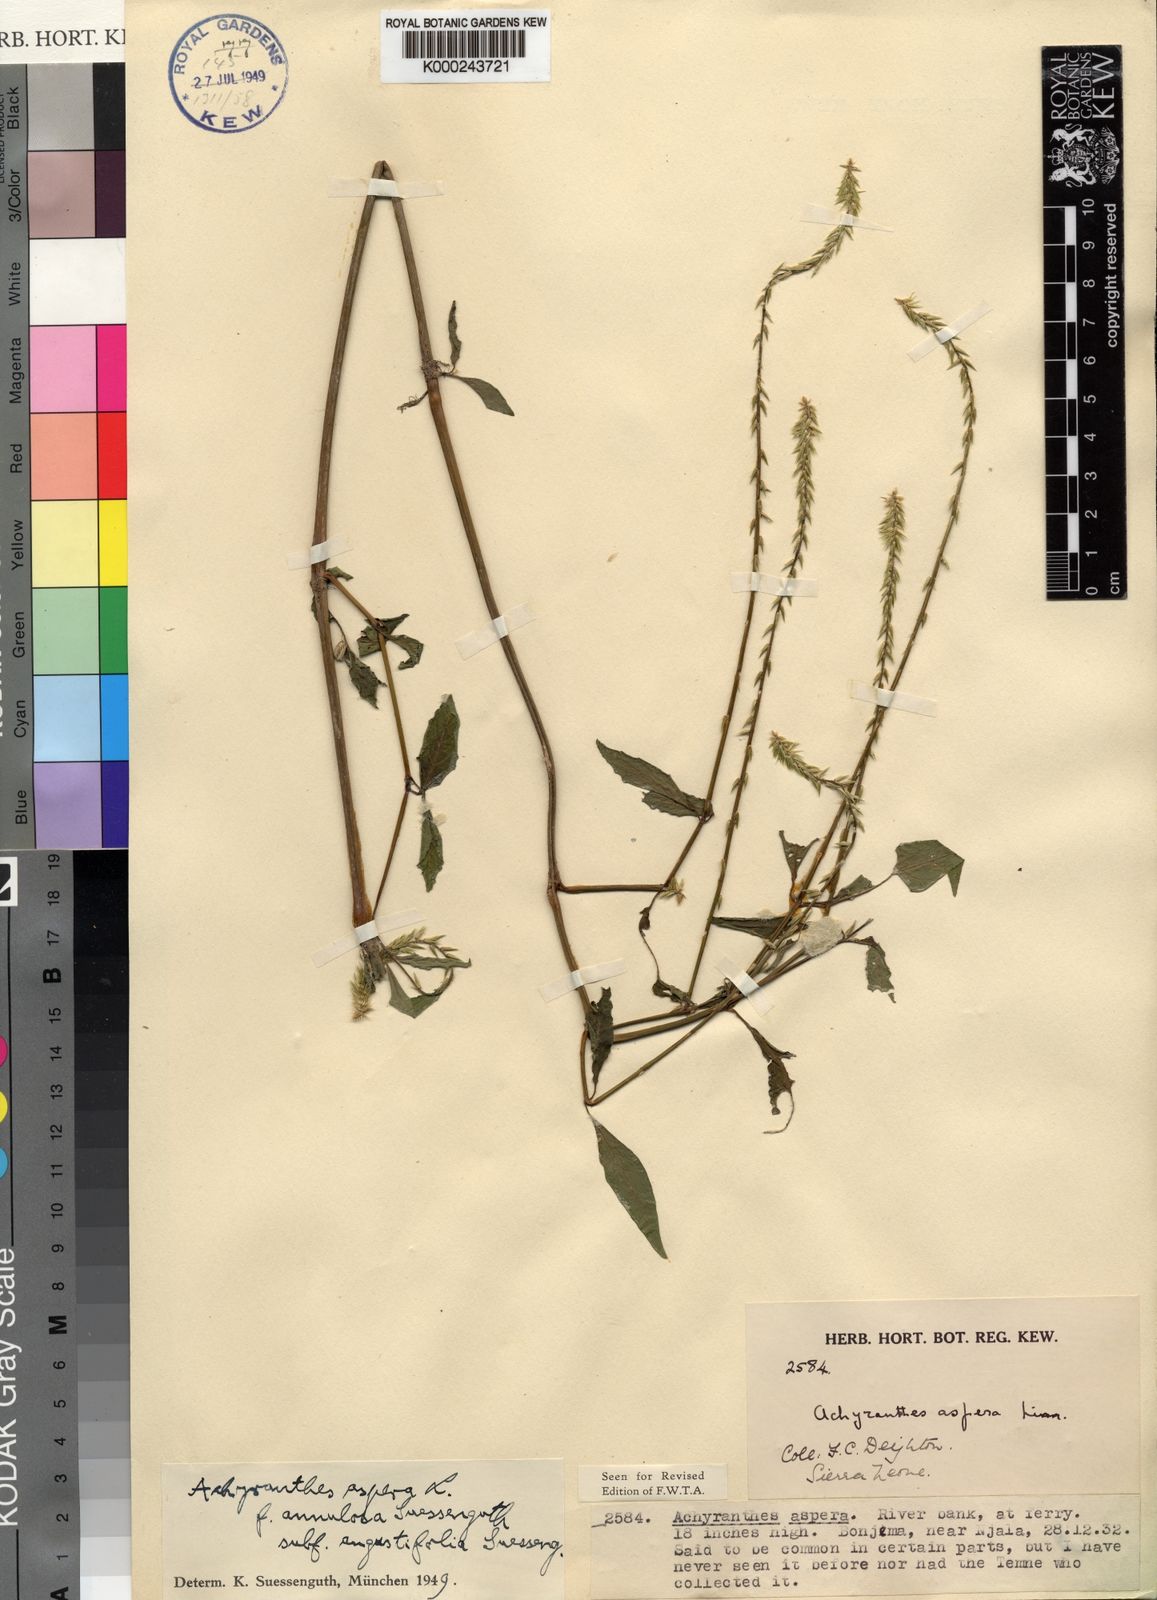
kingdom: Plantae
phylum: Tracheophyta
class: Magnoliopsida
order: Caryophyllales
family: Amaranthaceae
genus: Achyranthes
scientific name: Achyranthes aspera
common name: Devil's horsewhip
